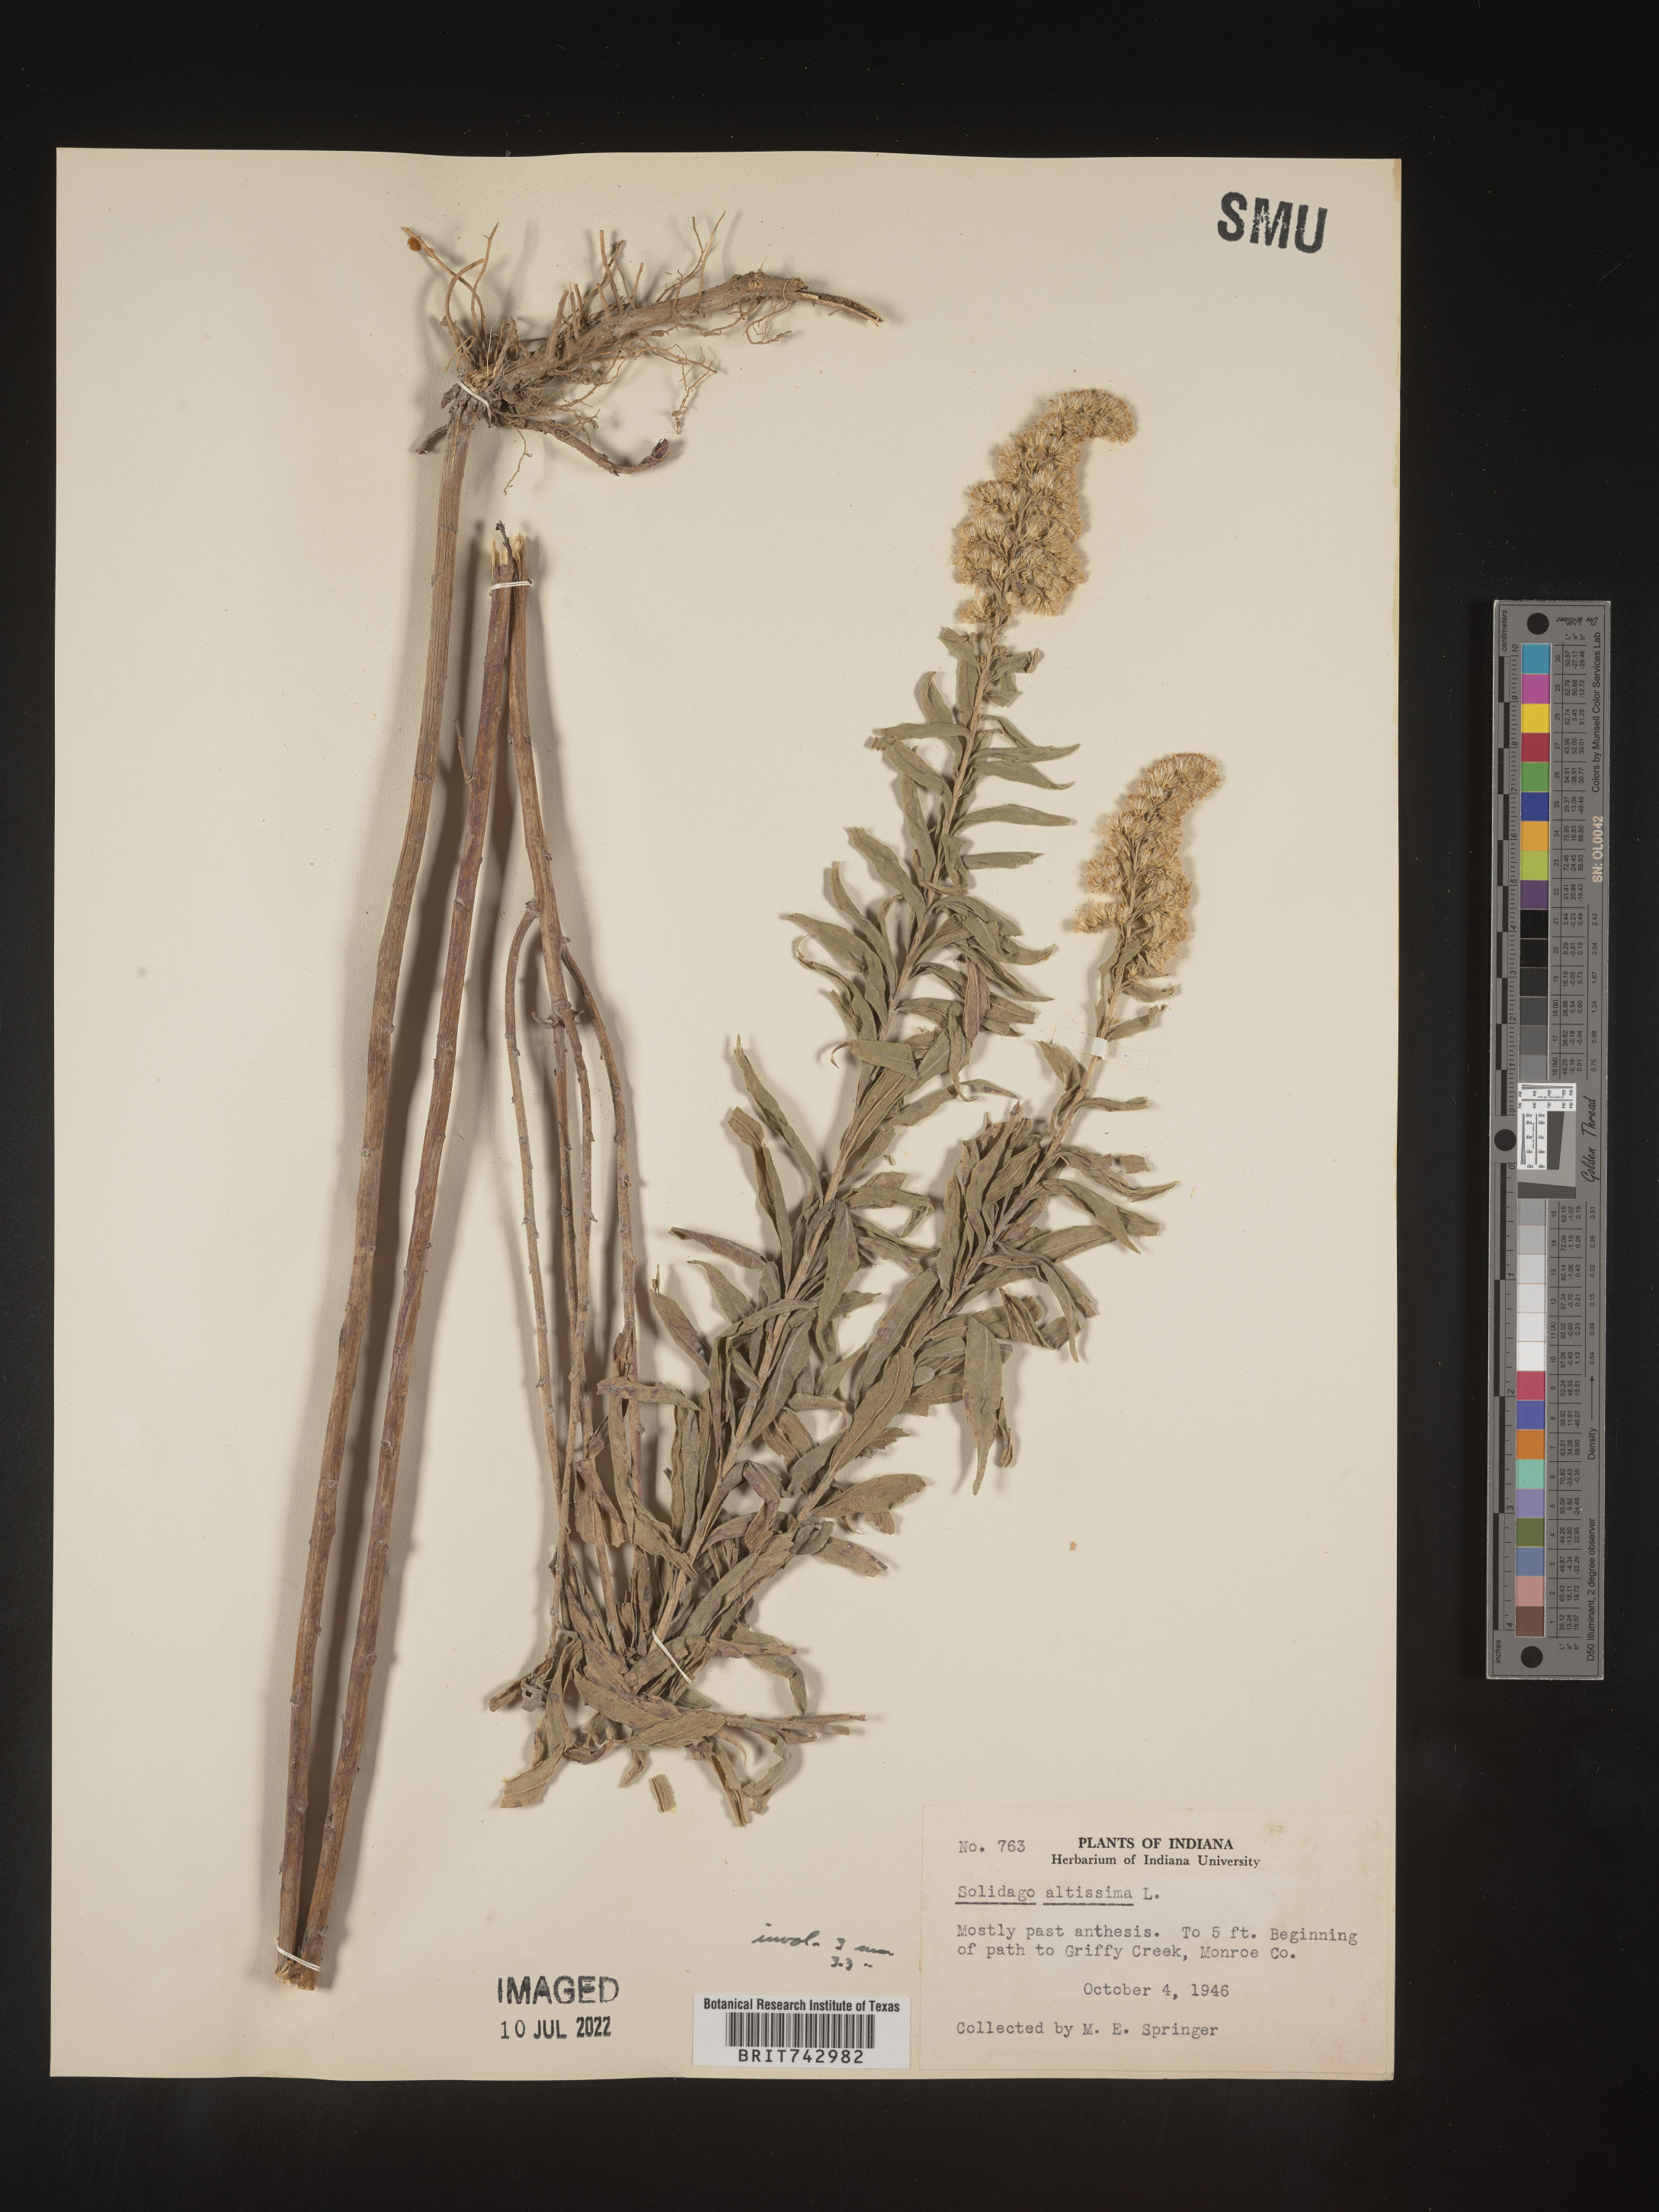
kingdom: Plantae
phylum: Tracheophyta
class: Magnoliopsida
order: Asterales
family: Asteraceae
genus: Solidago
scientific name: Solidago altissima
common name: Late goldenrod
